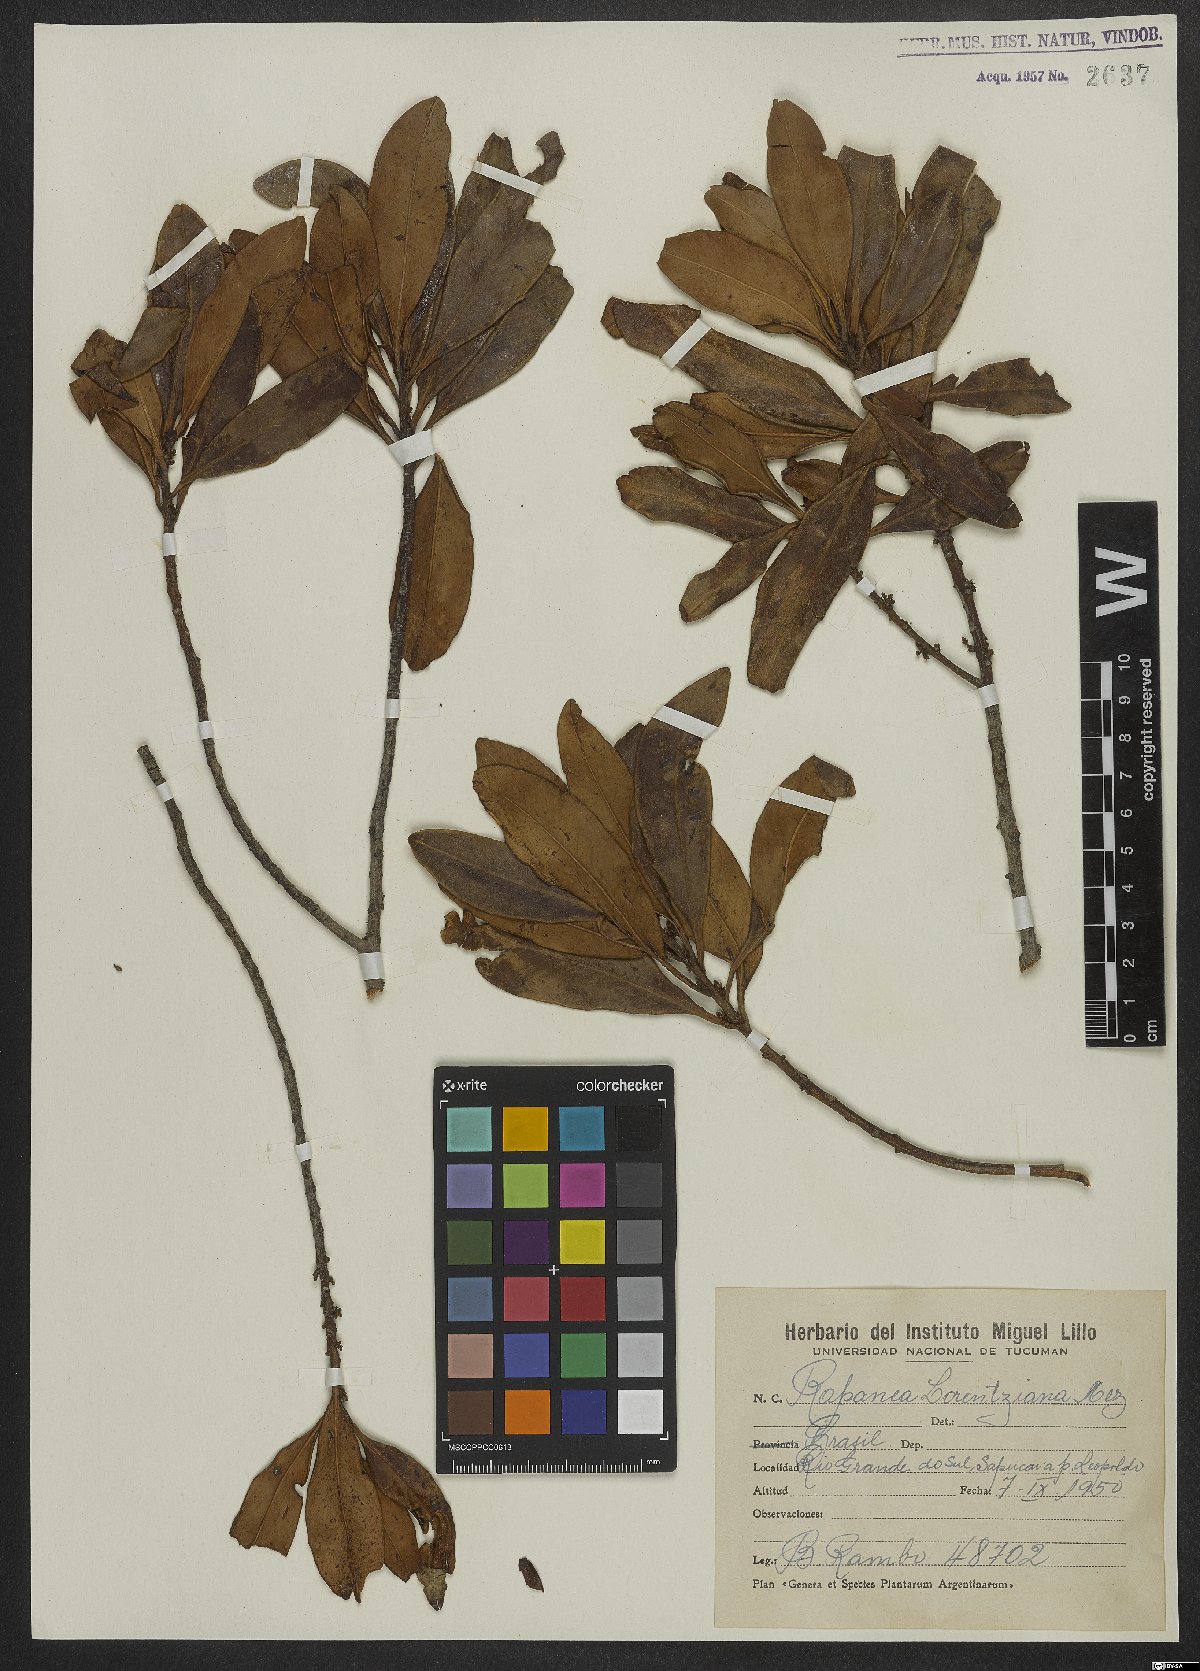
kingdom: Plantae
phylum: Tracheophyta
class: Magnoliopsida
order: Ericales
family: Primulaceae
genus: Myrsine
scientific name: Myrsine lorentziana
